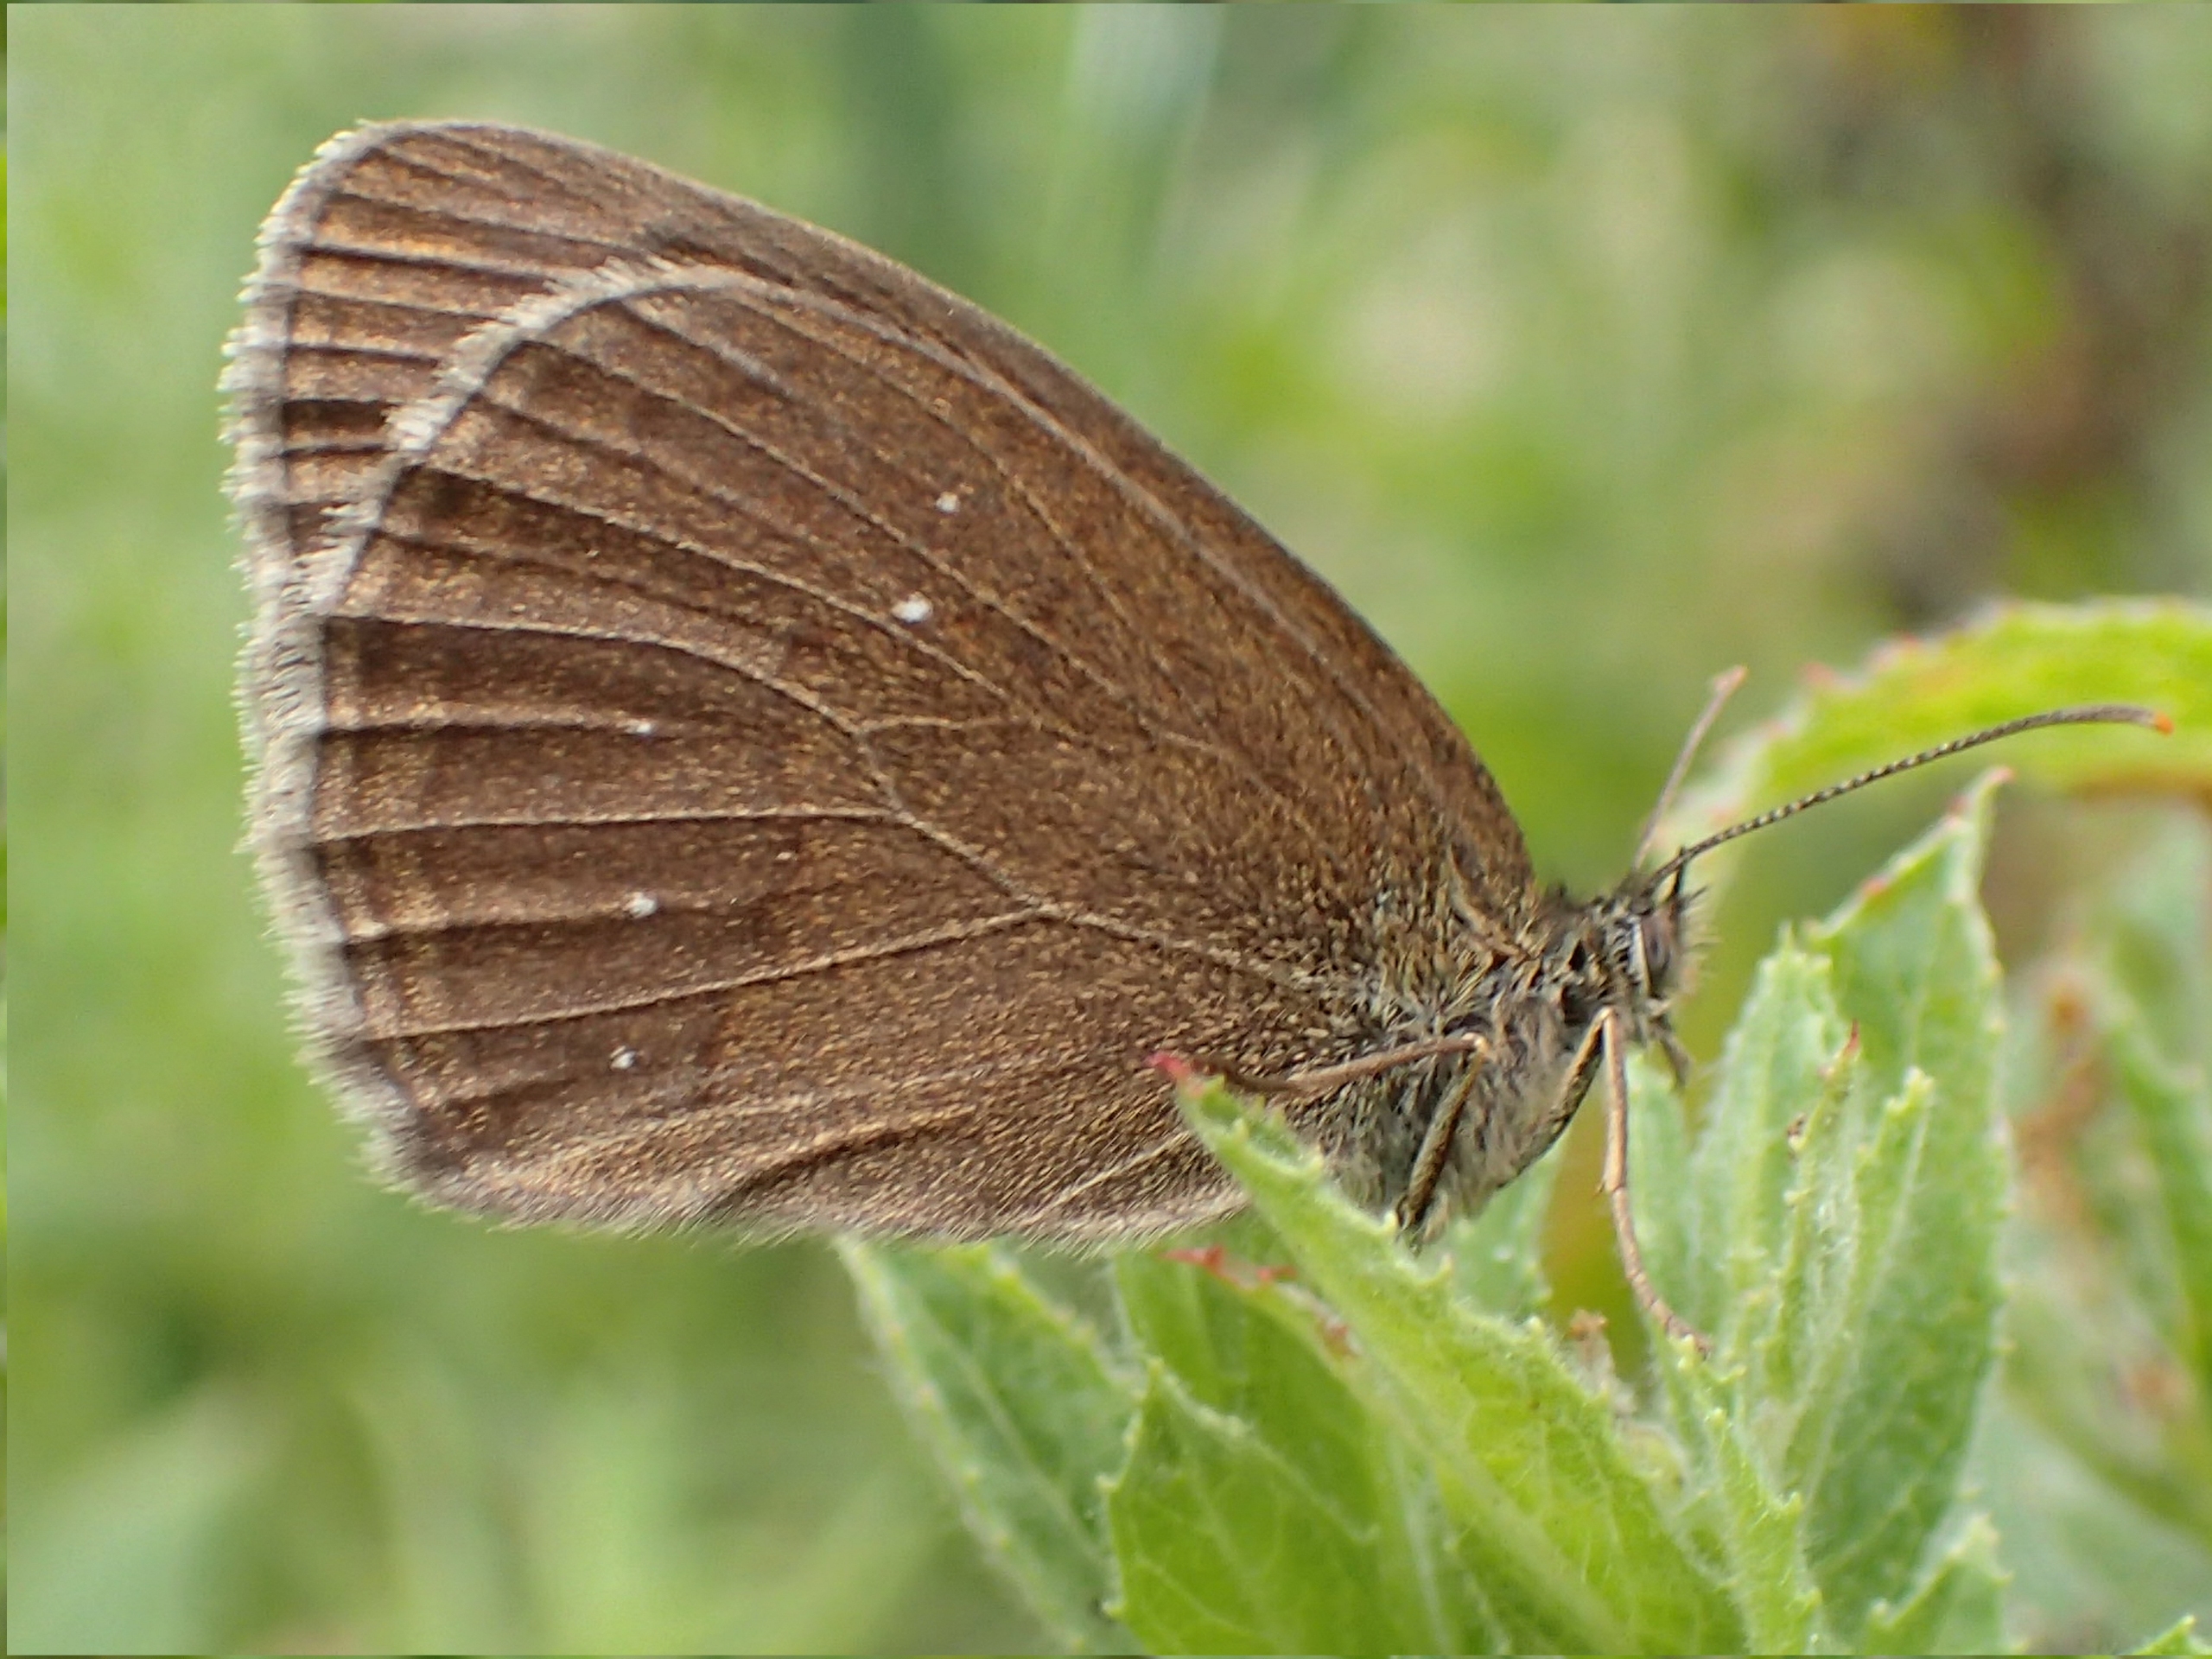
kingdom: Animalia
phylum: Arthropoda
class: Insecta
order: Lepidoptera
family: Nymphalidae
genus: Aphantopus
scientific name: Aphantopus hyperantus
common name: Engrandøje
